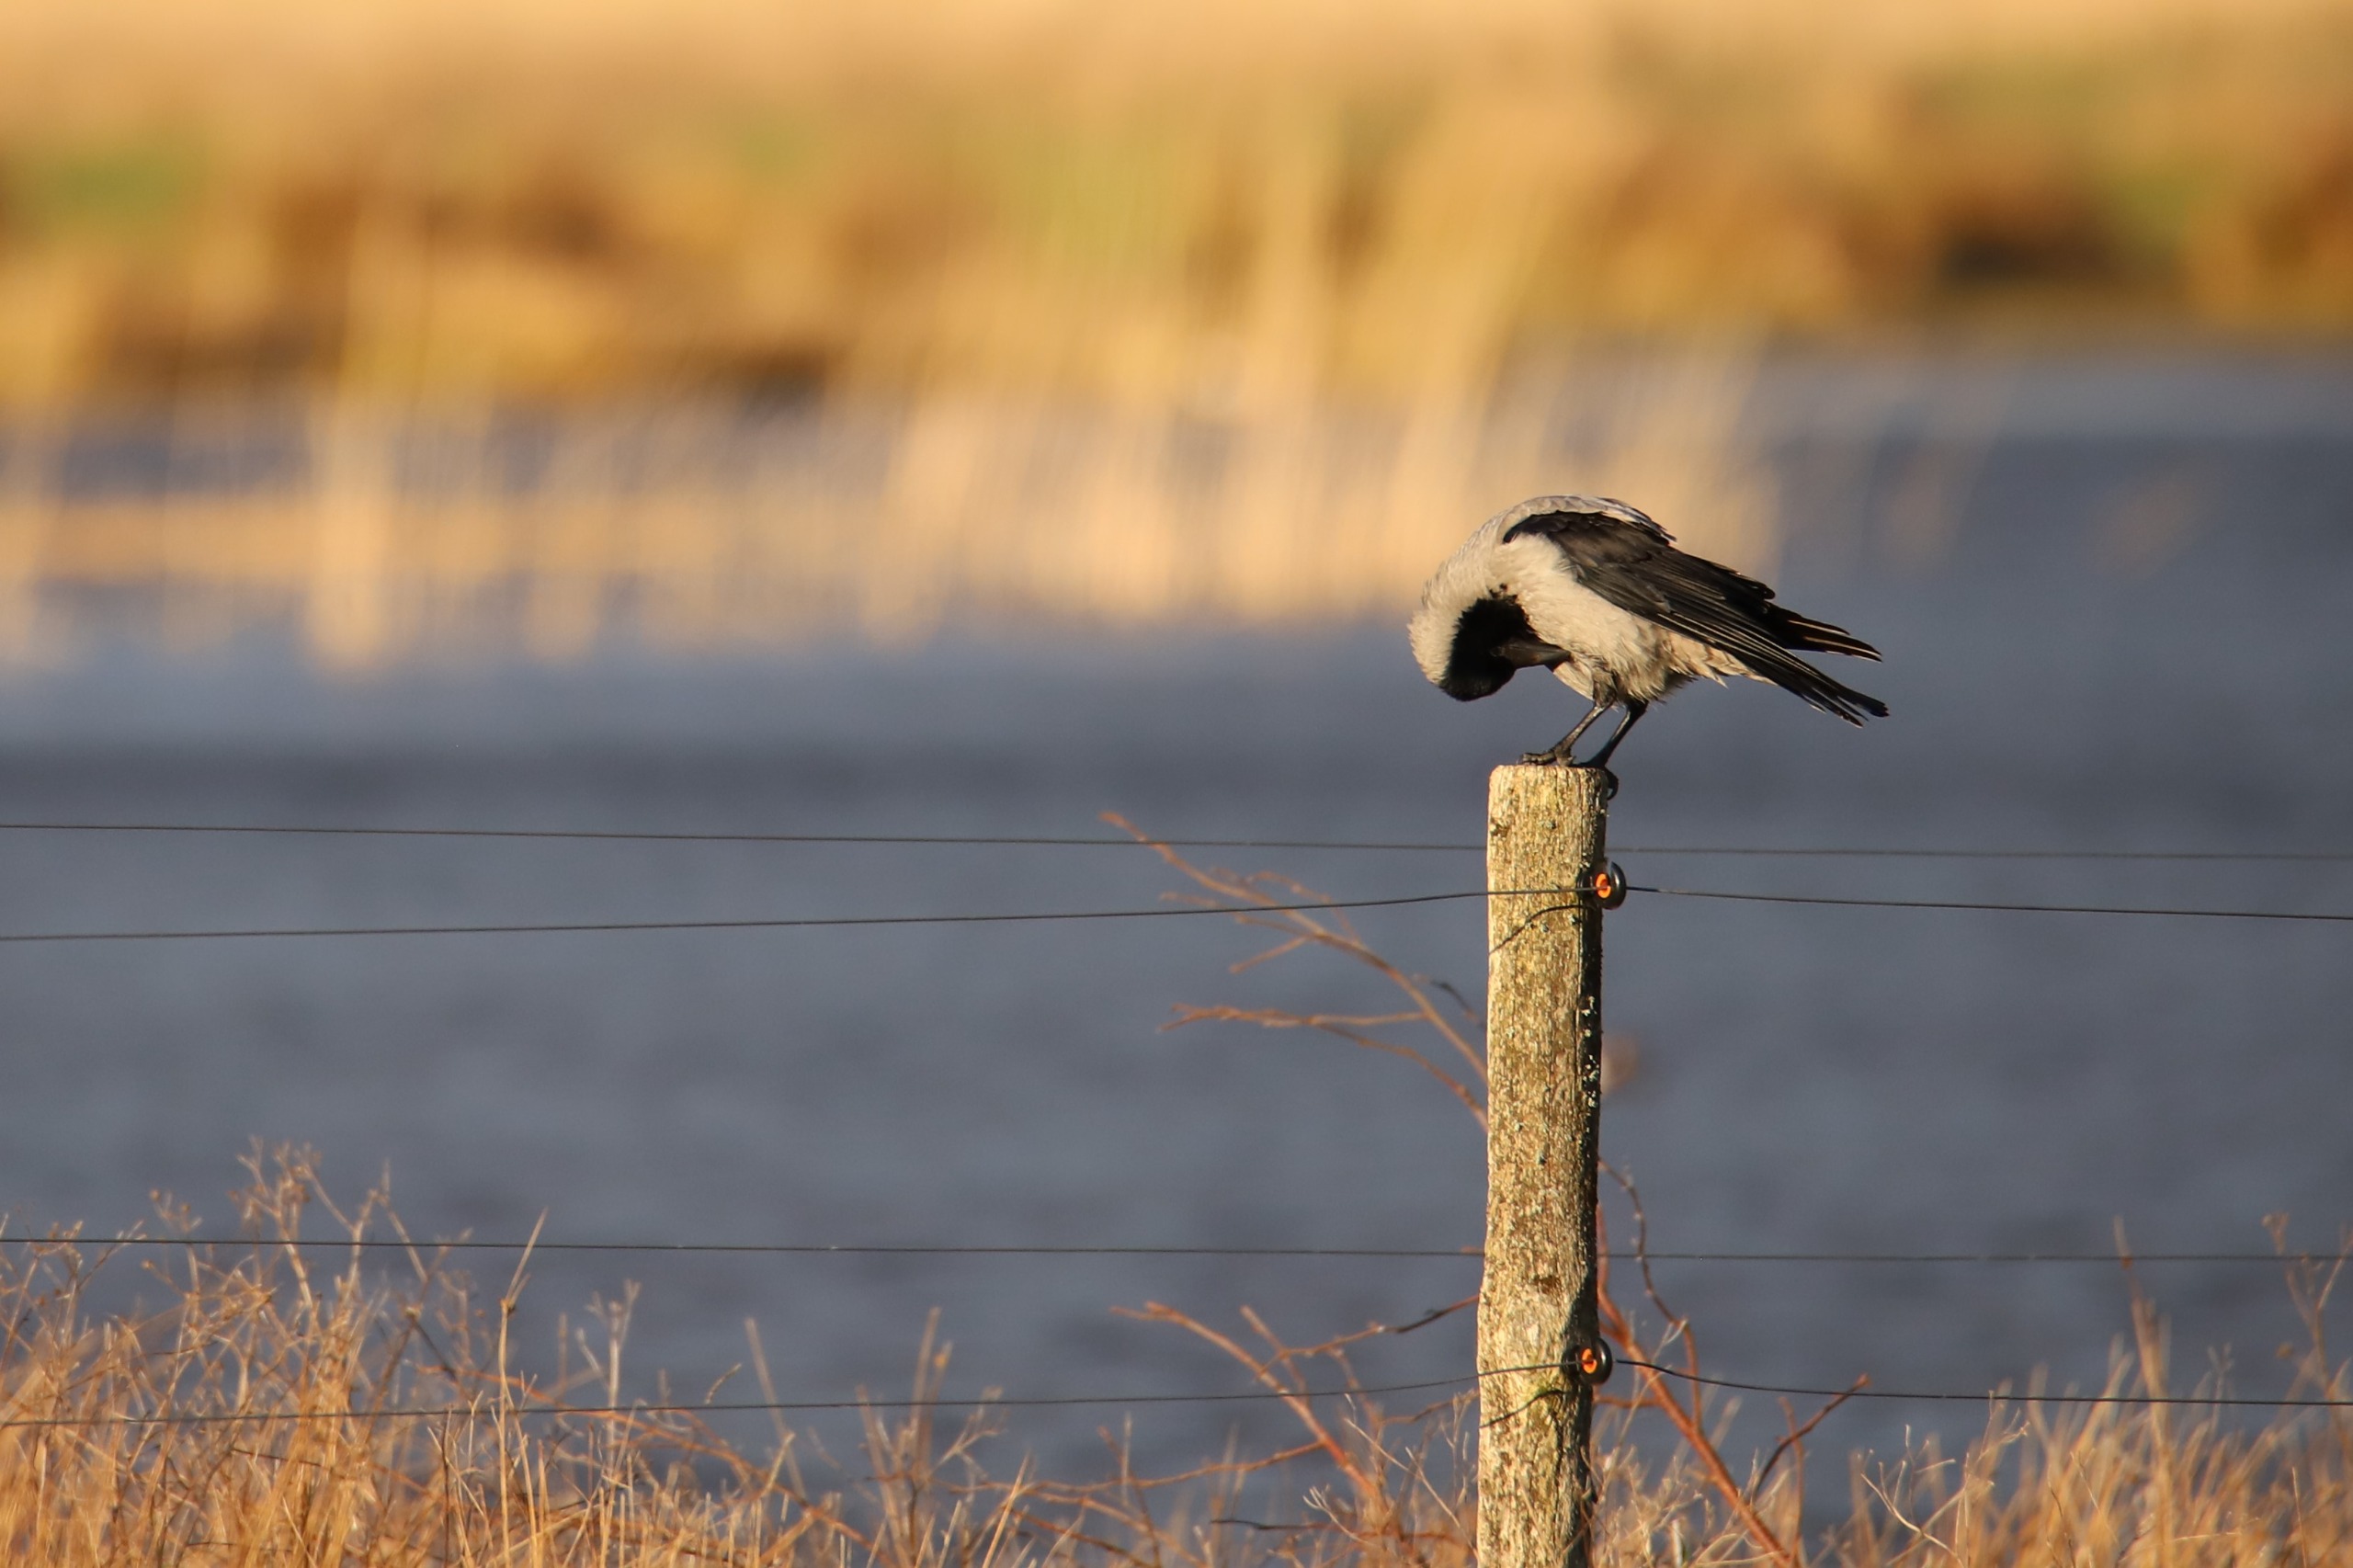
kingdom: Animalia
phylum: Chordata
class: Aves
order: Passeriformes
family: Corvidae
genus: Corvus
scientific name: Corvus cornix
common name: Gråkrage
